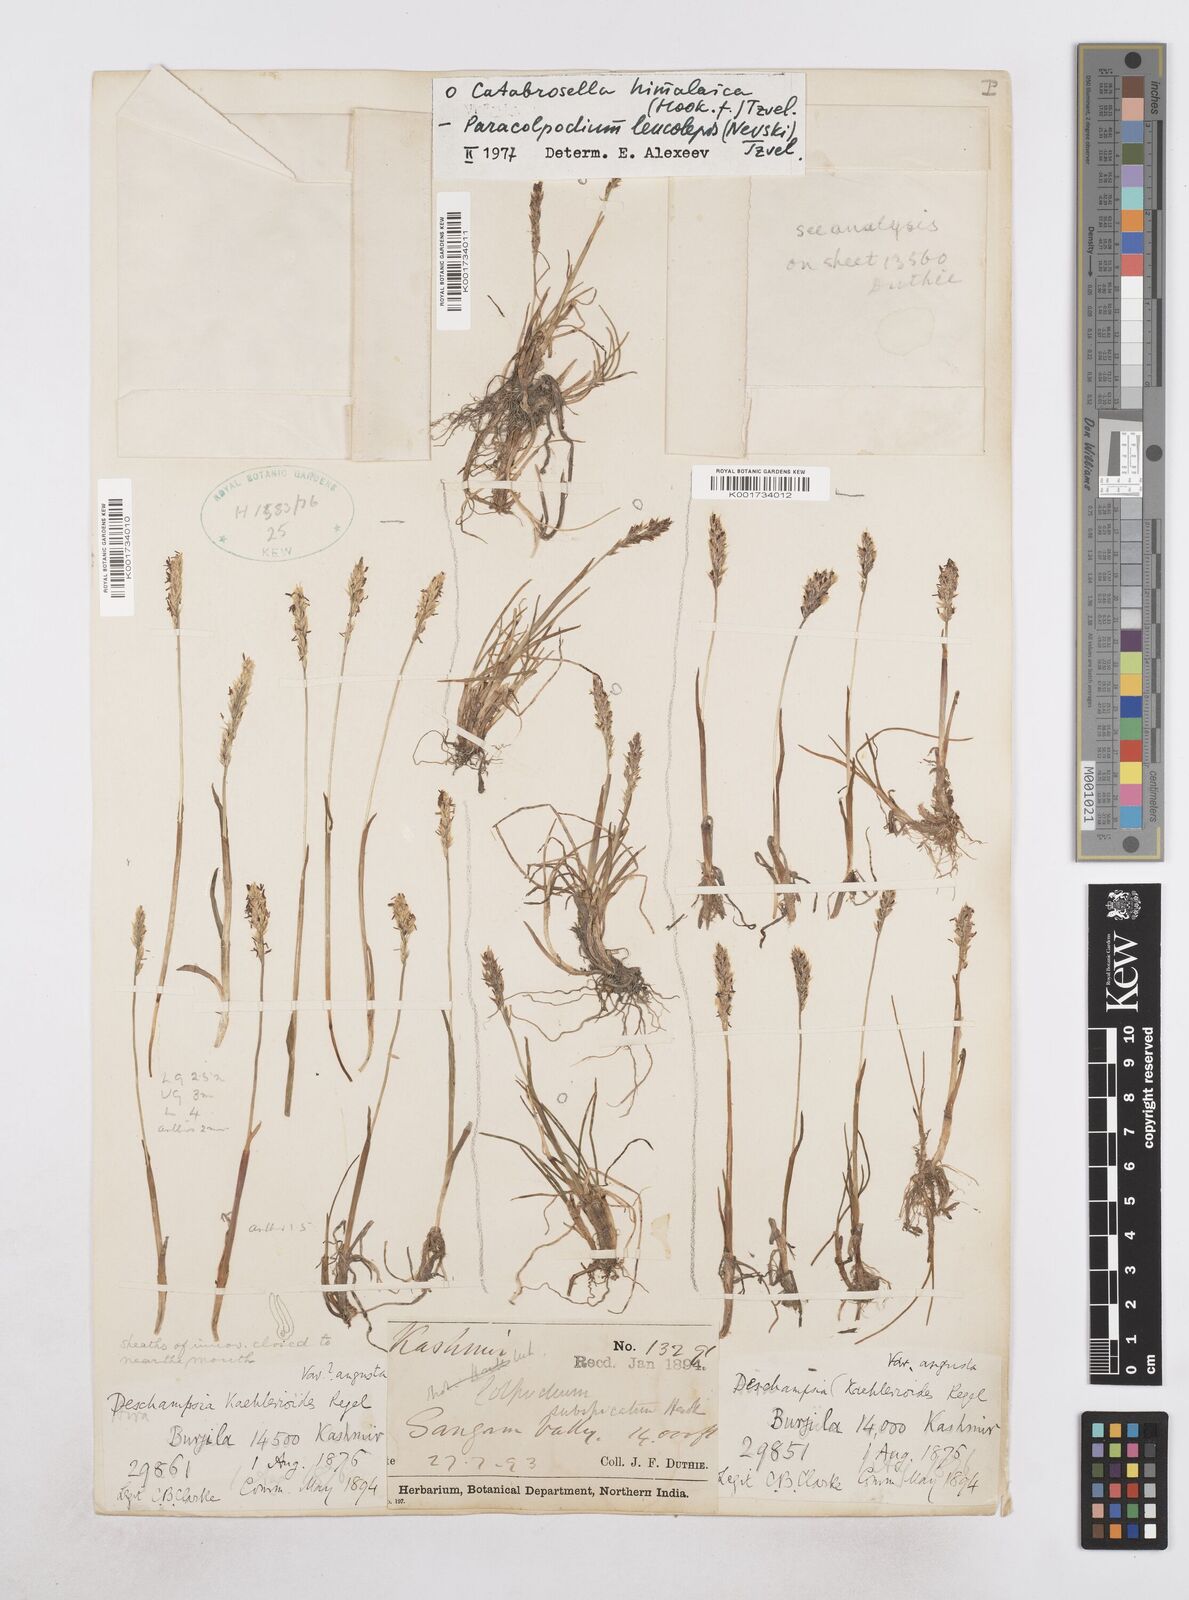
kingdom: Plantae
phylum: Tracheophyta
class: Liliopsida
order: Poales
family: Poaceae
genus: Paracolpodium
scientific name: Paracolpodium altaicum
